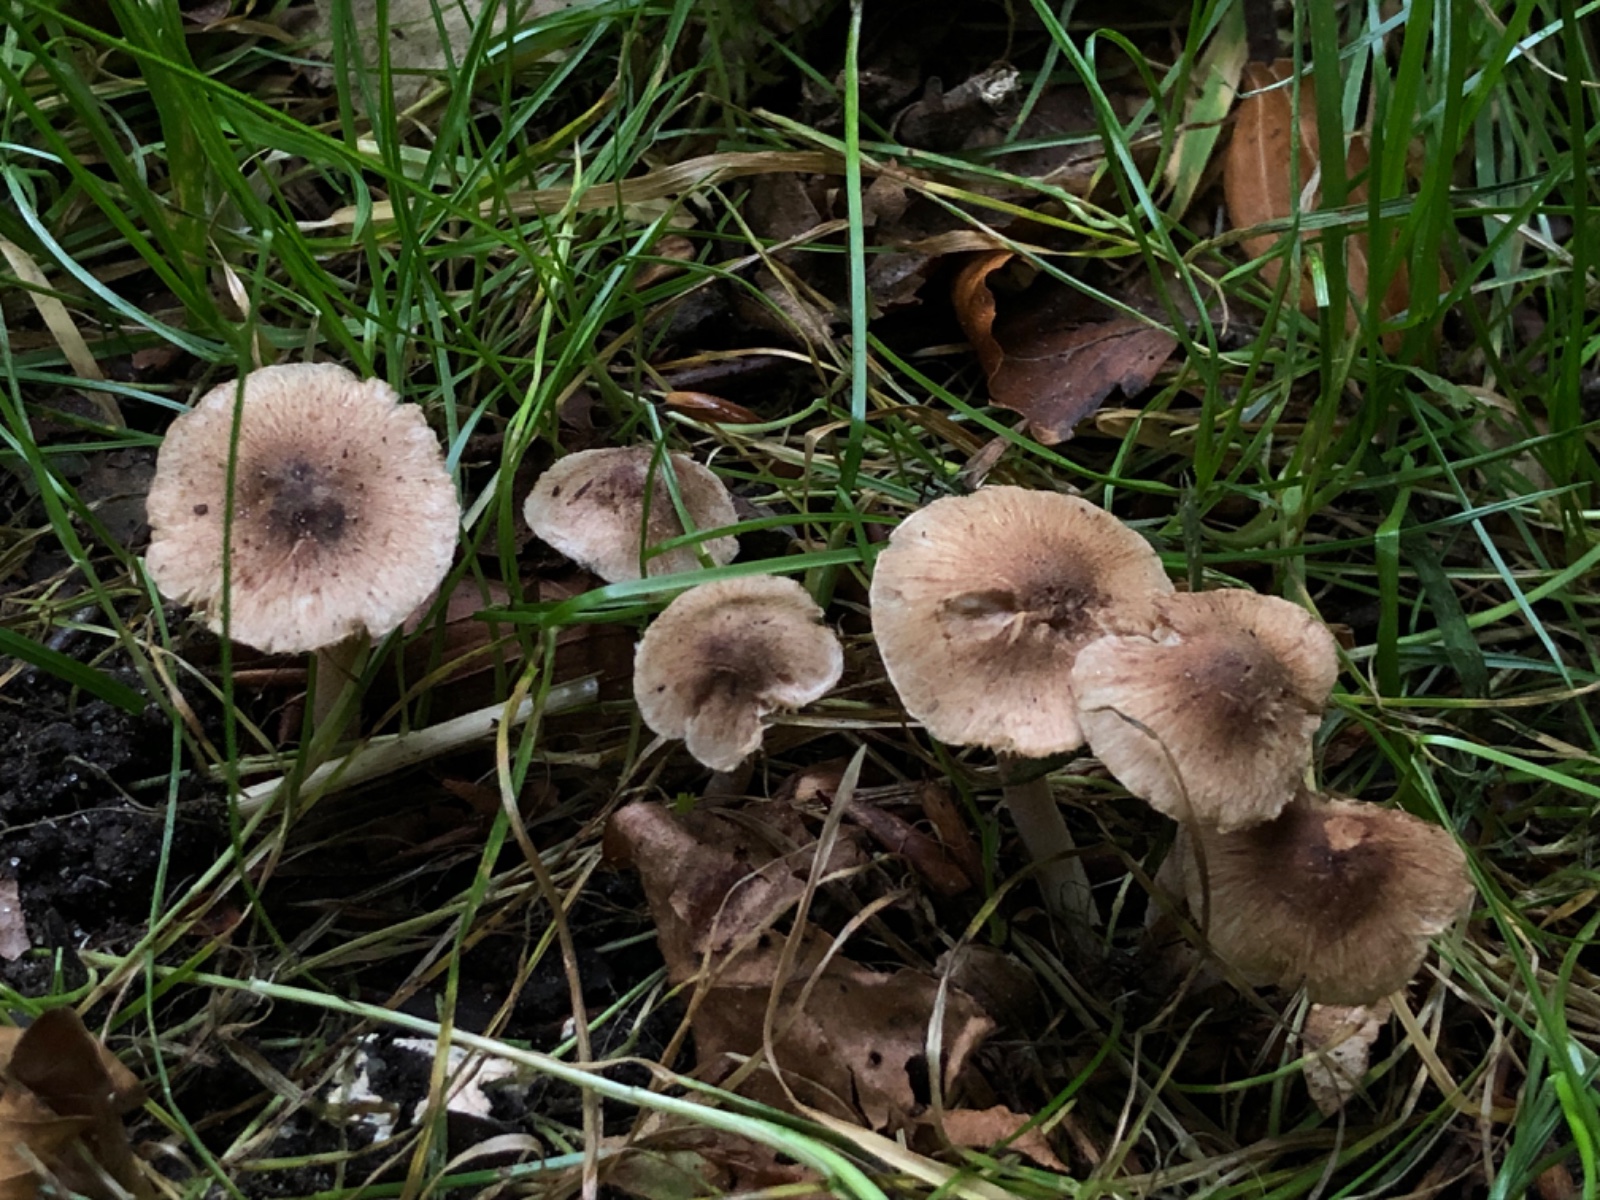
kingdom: Fungi
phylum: Basidiomycota
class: Agaricomycetes
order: Agaricales
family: Inocybaceae
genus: Inocybe
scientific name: Inocybe rimosobispora
